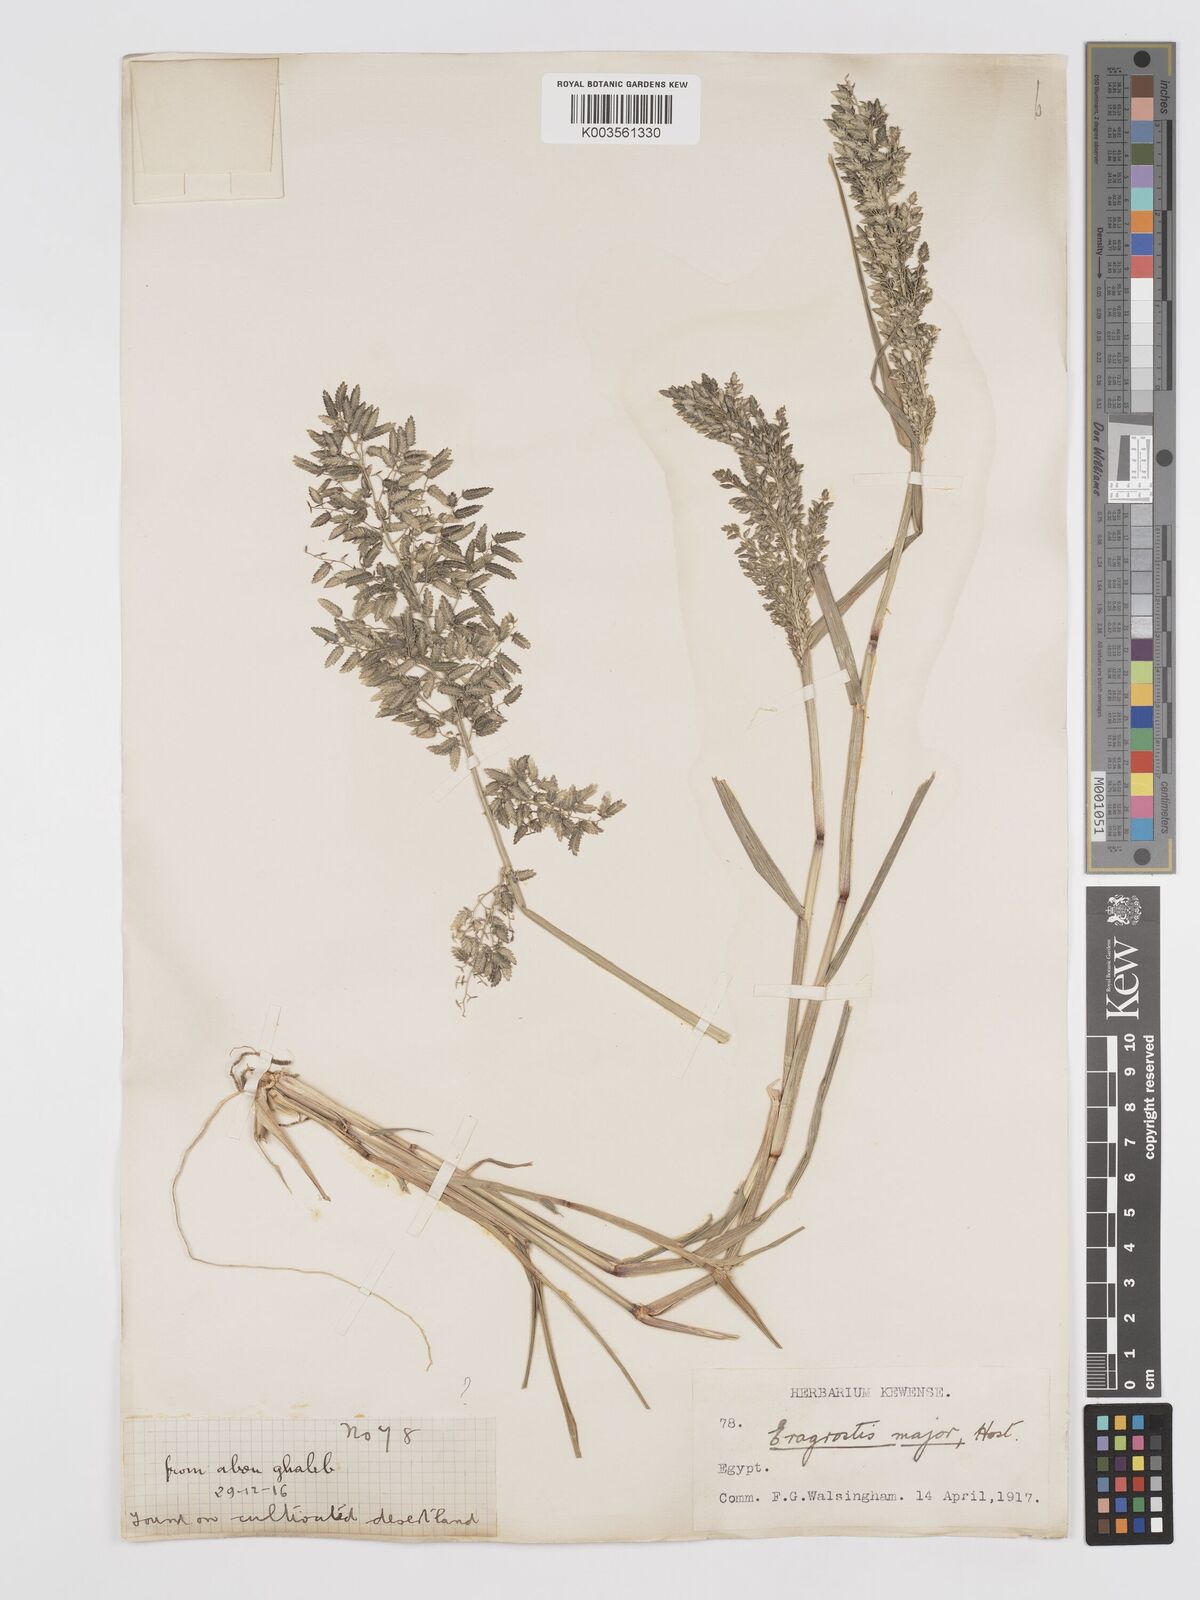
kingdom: Plantae
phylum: Tracheophyta
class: Liliopsida
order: Poales
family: Poaceae
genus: Eragrostis
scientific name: Eragrostis cilianensis
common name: Stinkgrass
